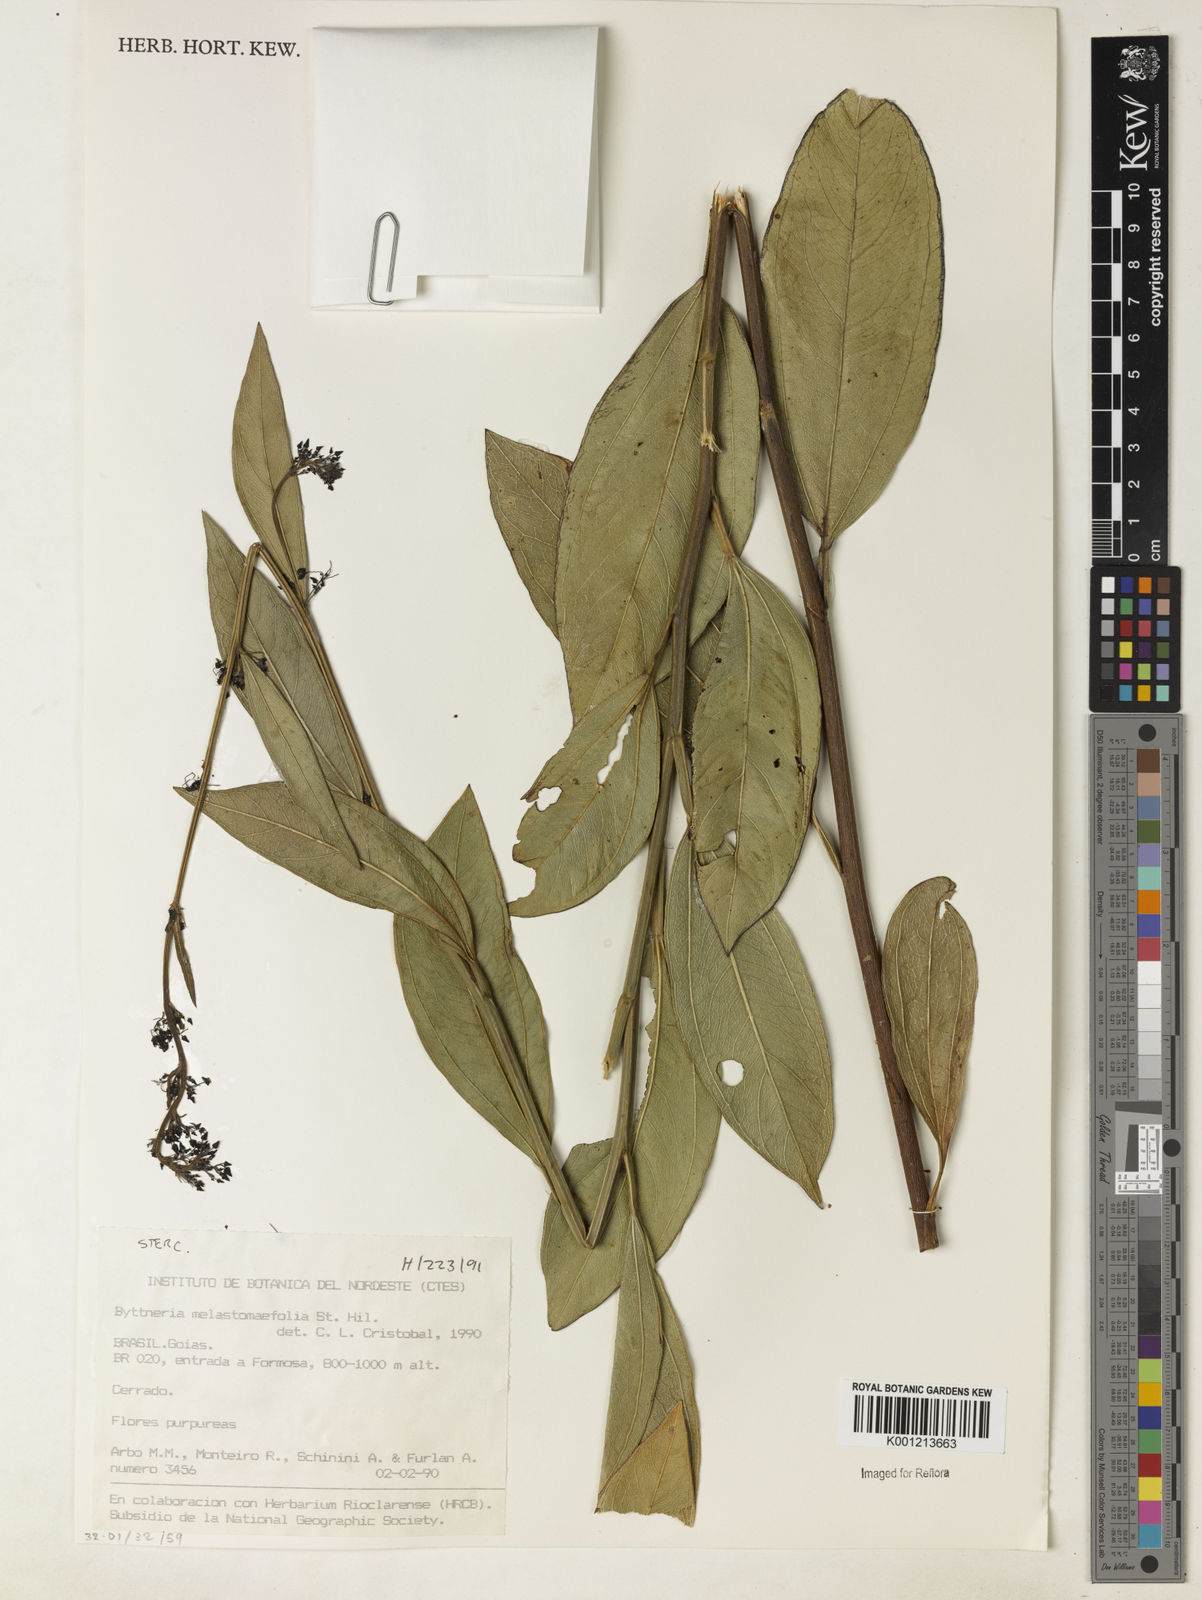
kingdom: Plantae
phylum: Tracheophyta
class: Magnoliopsida
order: Malvales
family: Malvaceae
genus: Byttneria
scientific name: Byttneria melastomifolia
